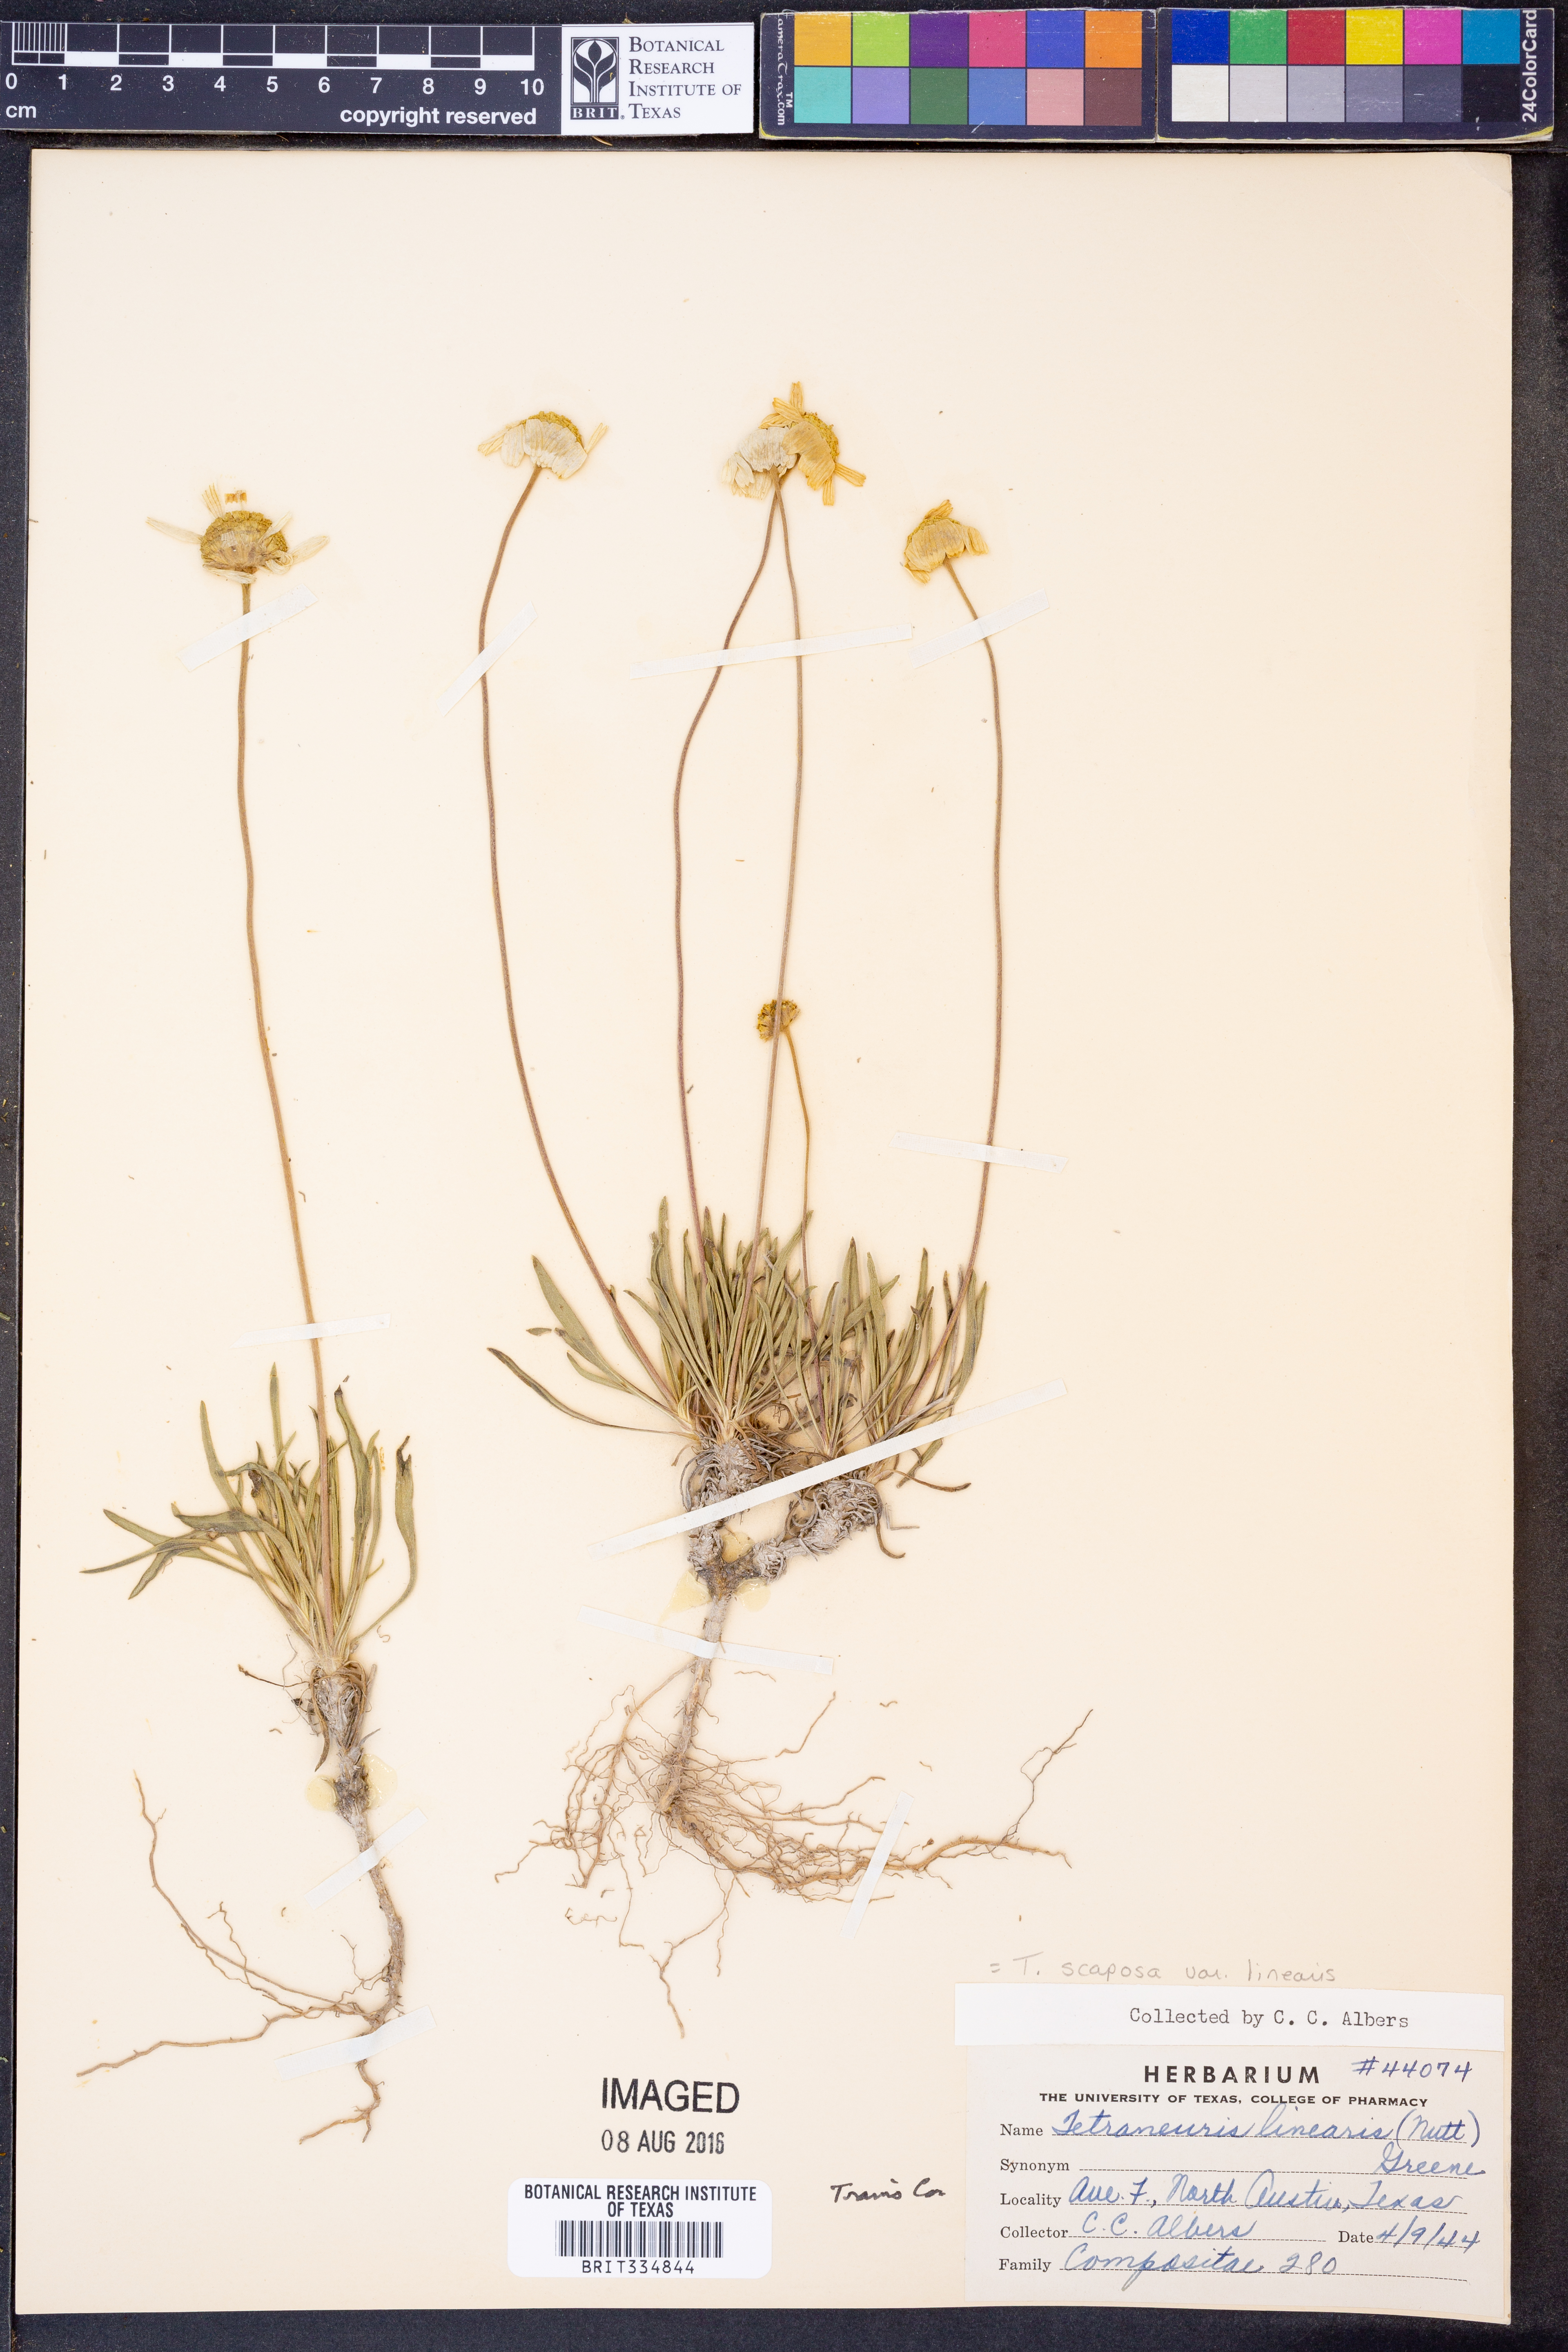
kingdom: Plantae
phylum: Tracheophyta
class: Magnoliopsida
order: Asterales
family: Asteraceae
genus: Tetraneuris
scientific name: Tetraneuris scaposa
